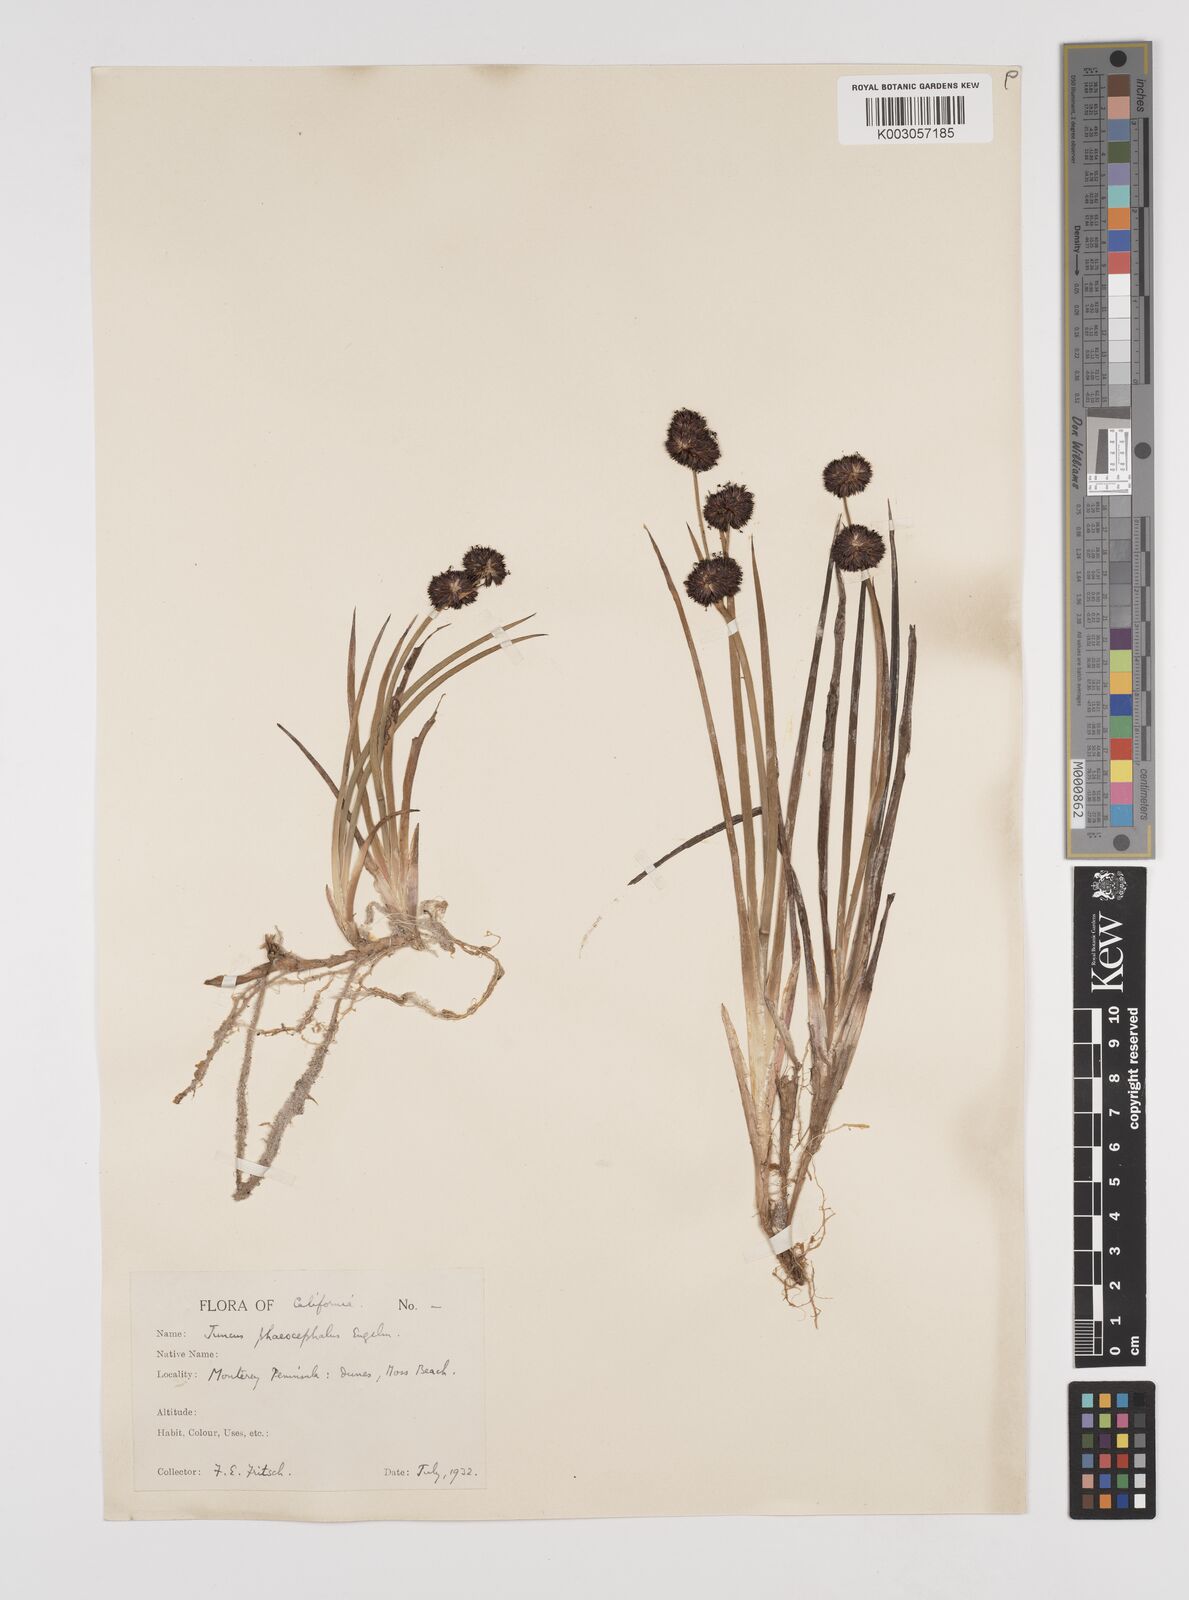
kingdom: Plantae
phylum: Tracheophyta
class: Liliopsida
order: Poales
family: Juncaceae
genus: Juncus
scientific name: Juncus phaeocephalus
